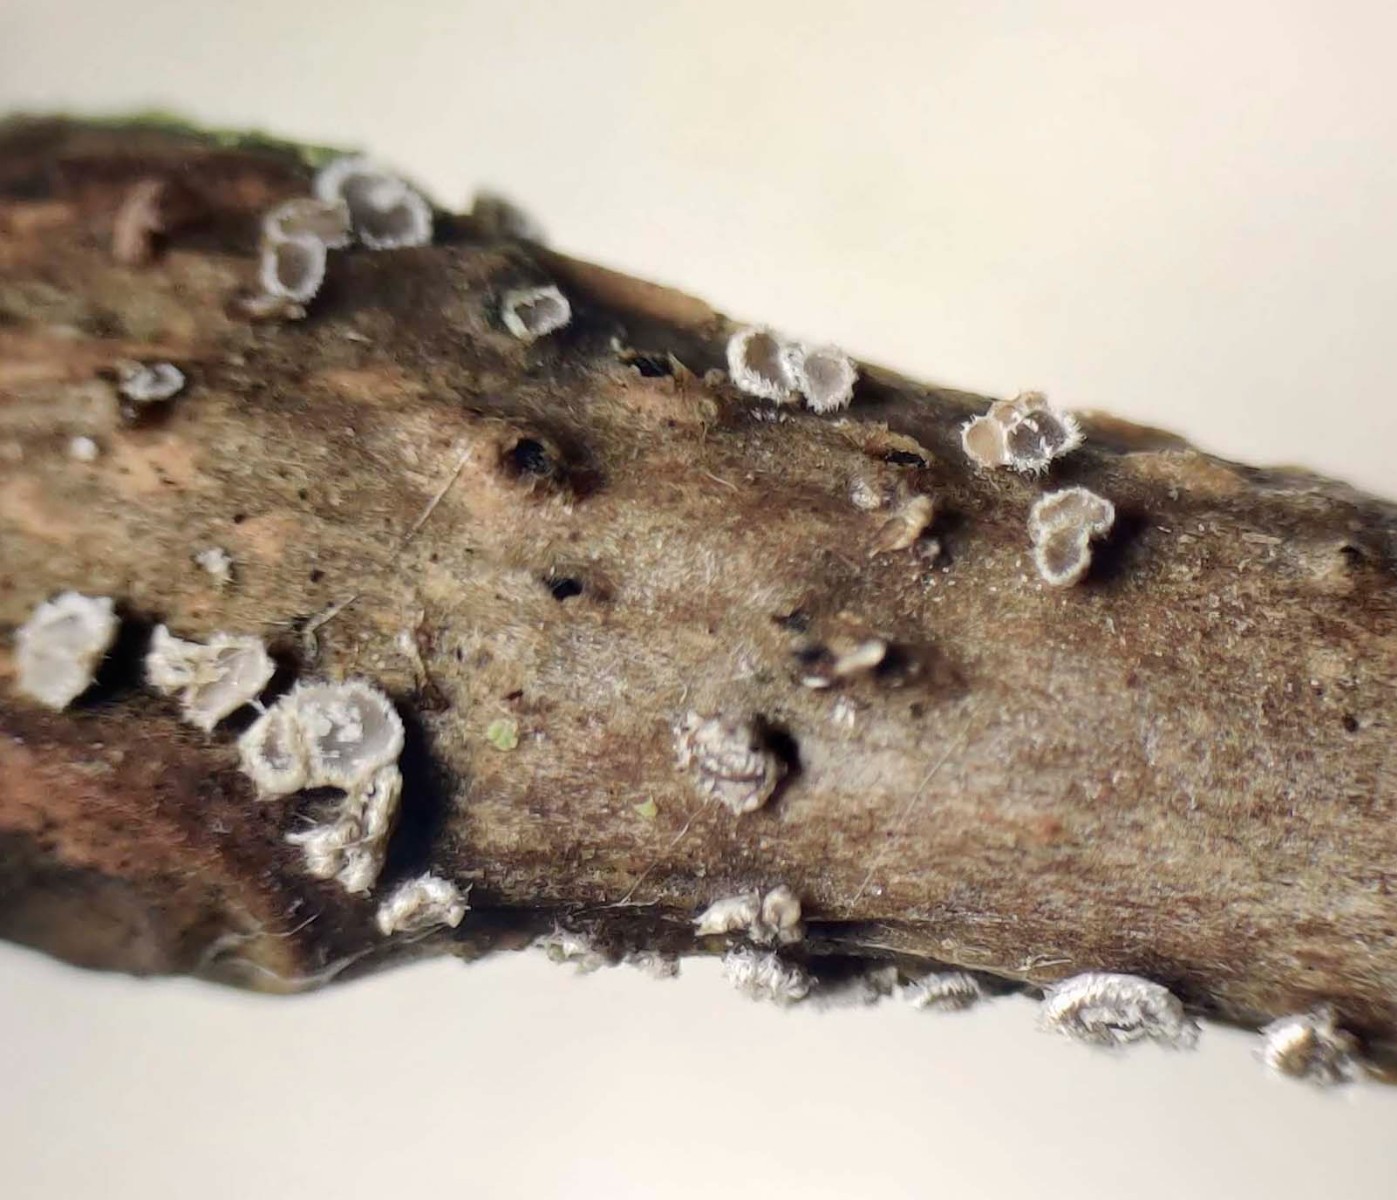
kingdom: Fungi
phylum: Basidiomycota
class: Agaricomycetes
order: Agaricales
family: Niaceae
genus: Lachnella
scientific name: Lachnella alboviolascens
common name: grå frynserede
